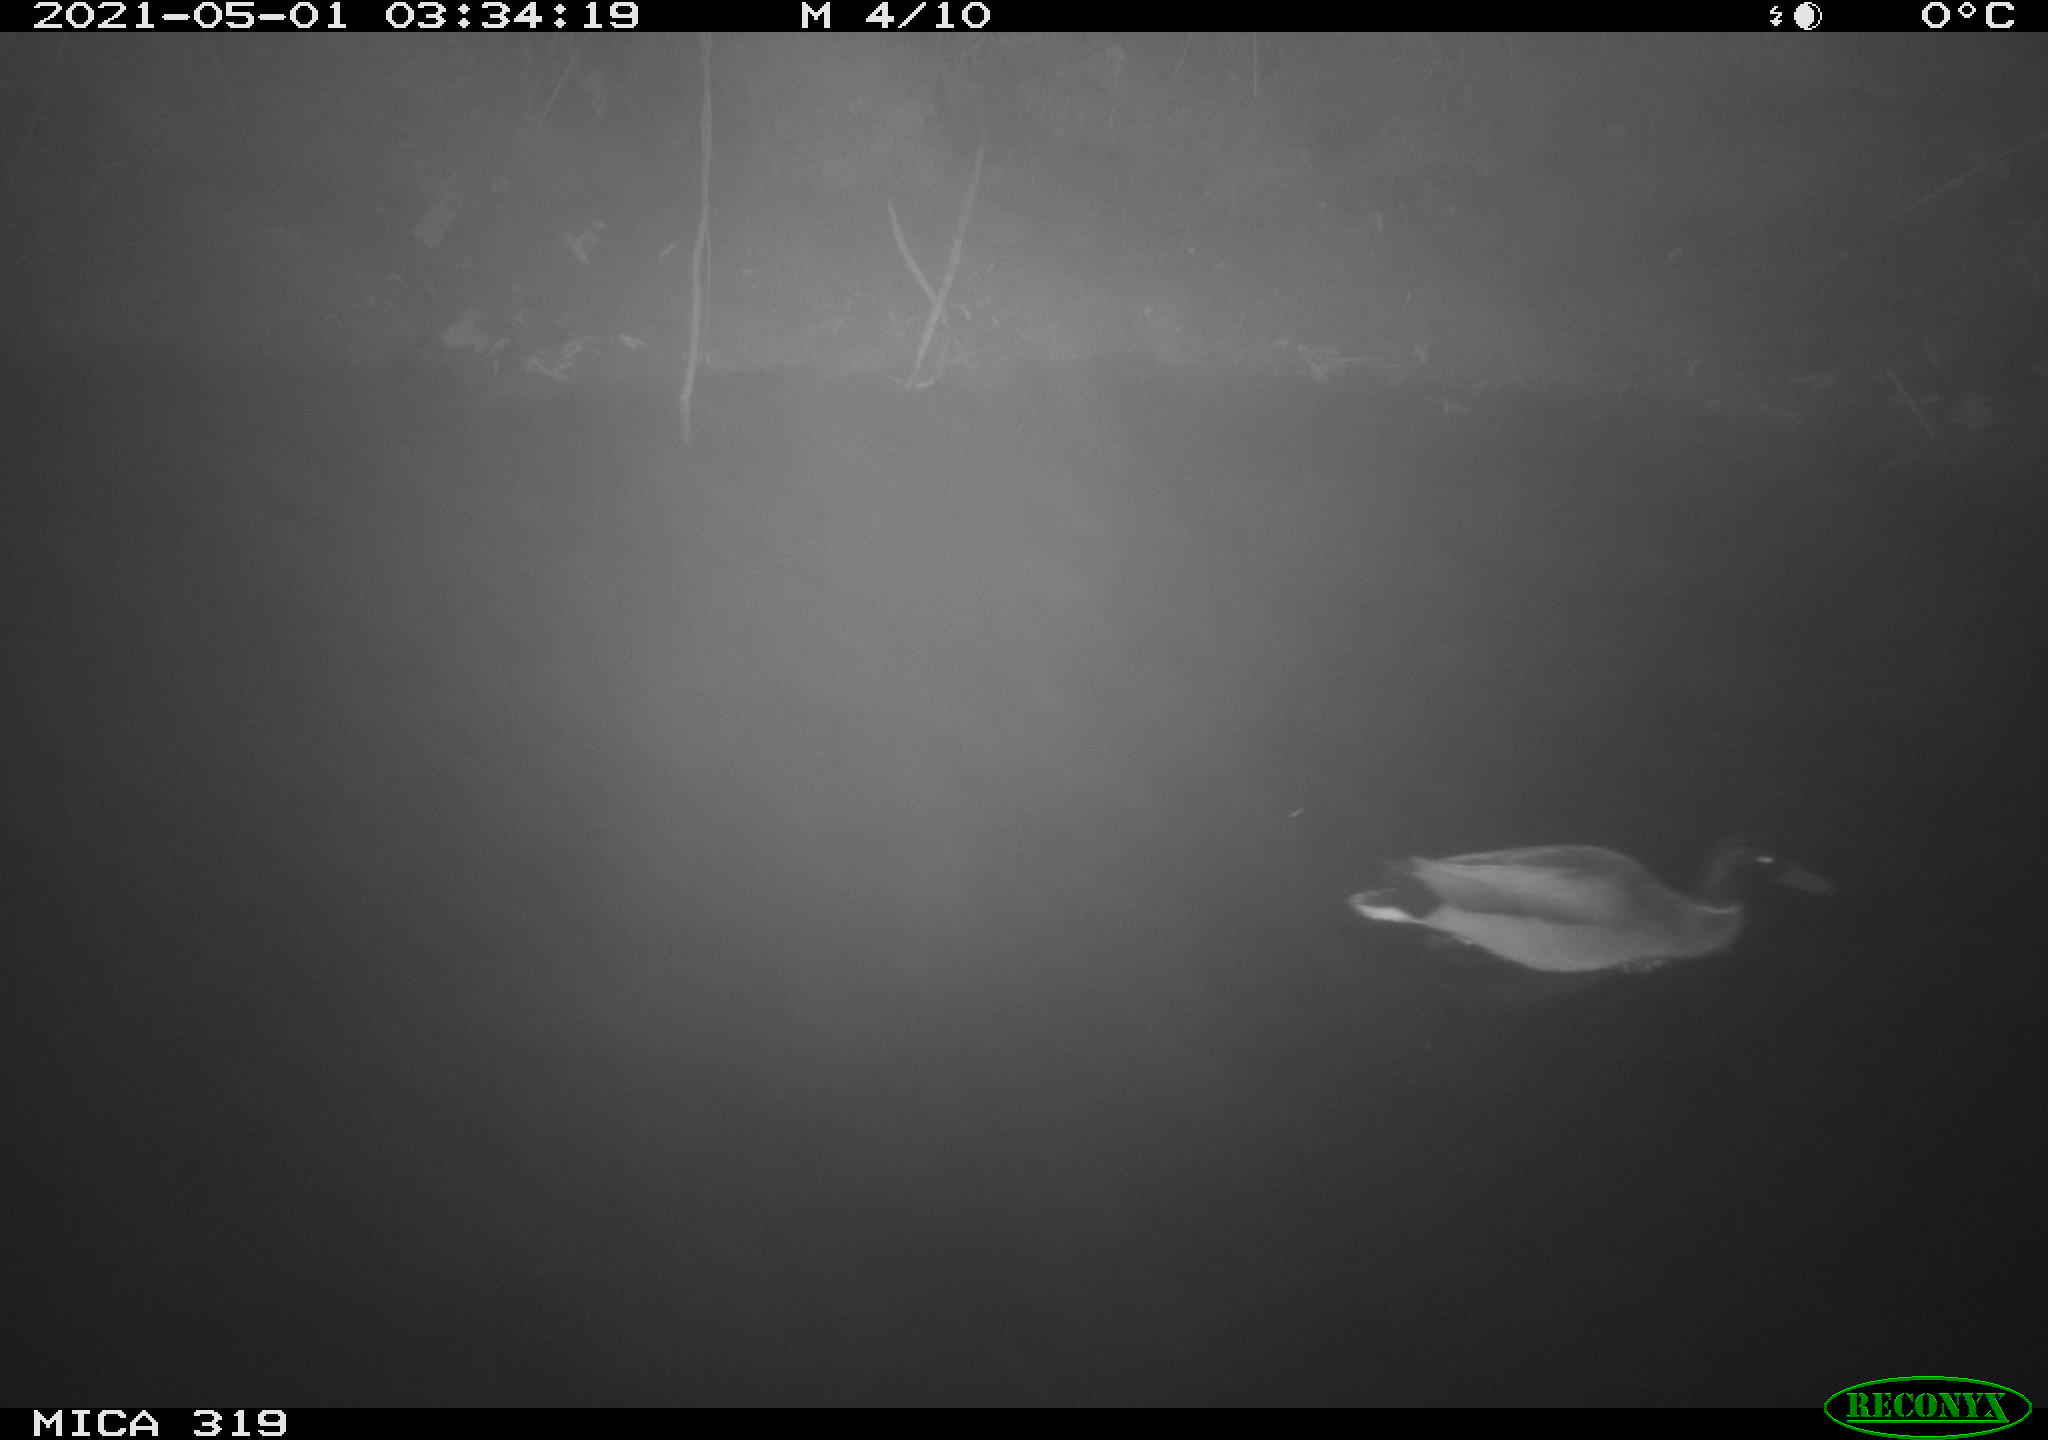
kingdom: Animalia
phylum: Chordata
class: Aves
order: Anseriformes
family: Anatidae
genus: Anas
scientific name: Anas platyrhynchos
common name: Mallard
